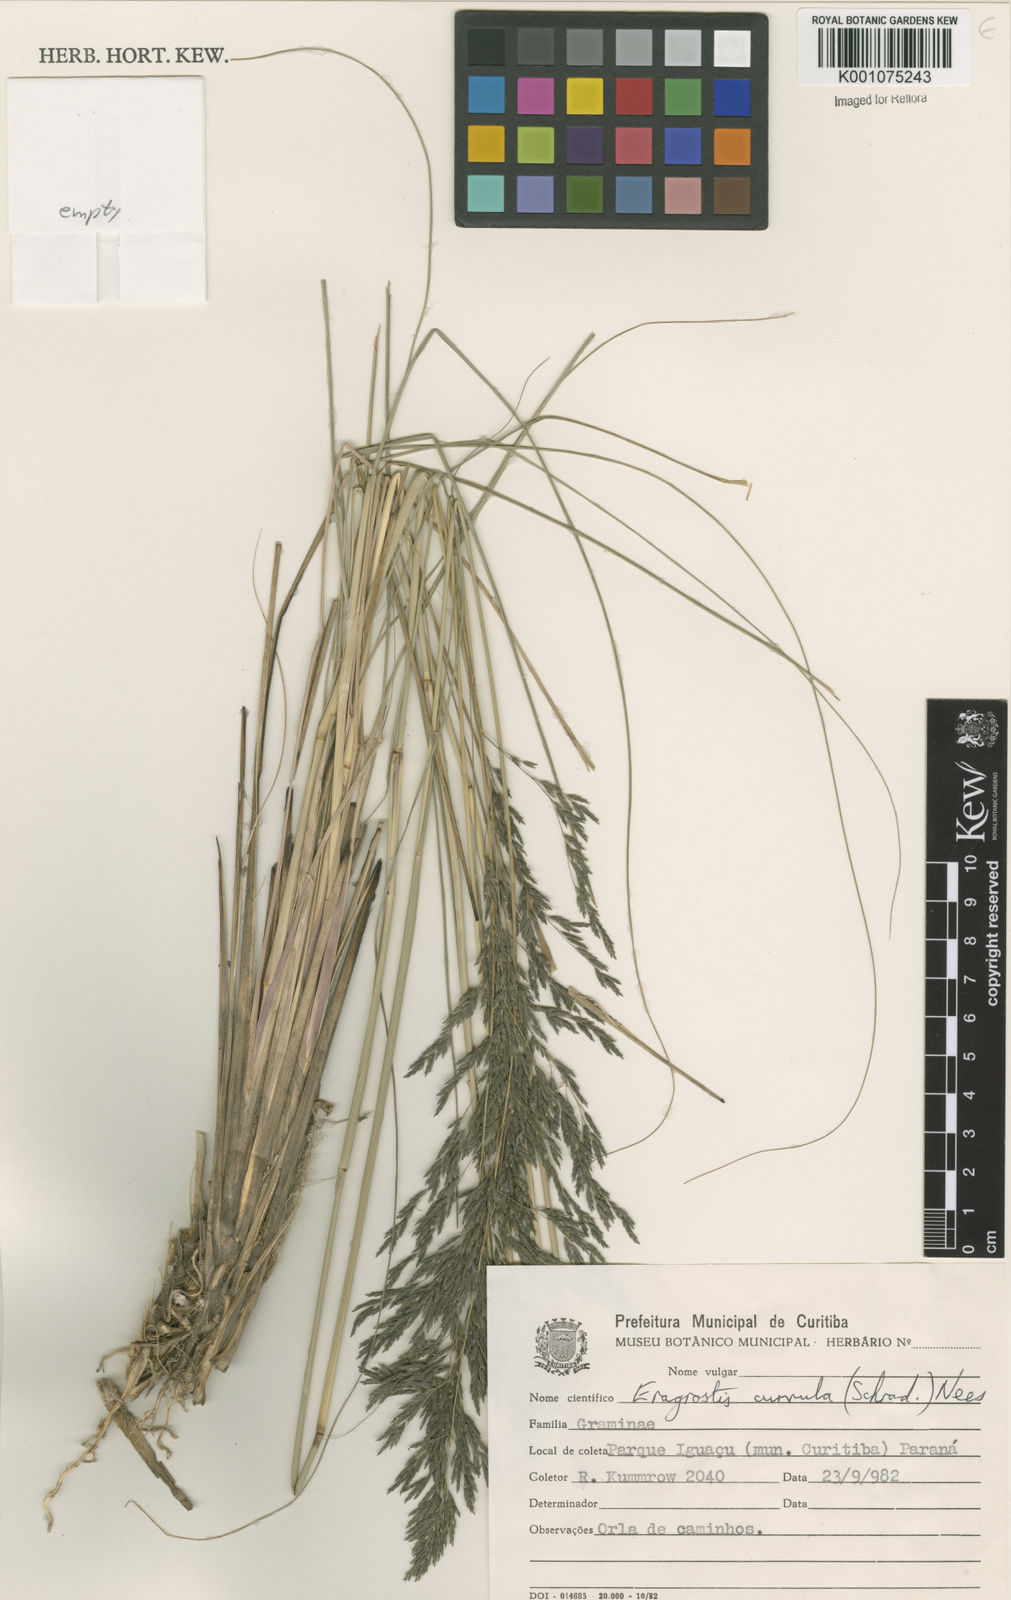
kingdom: Plantae
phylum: Tracheophyta
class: Liliopsida
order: Poales
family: Poaceae
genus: Eragrostis
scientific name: Eragrostis curvula
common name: African love-grass
